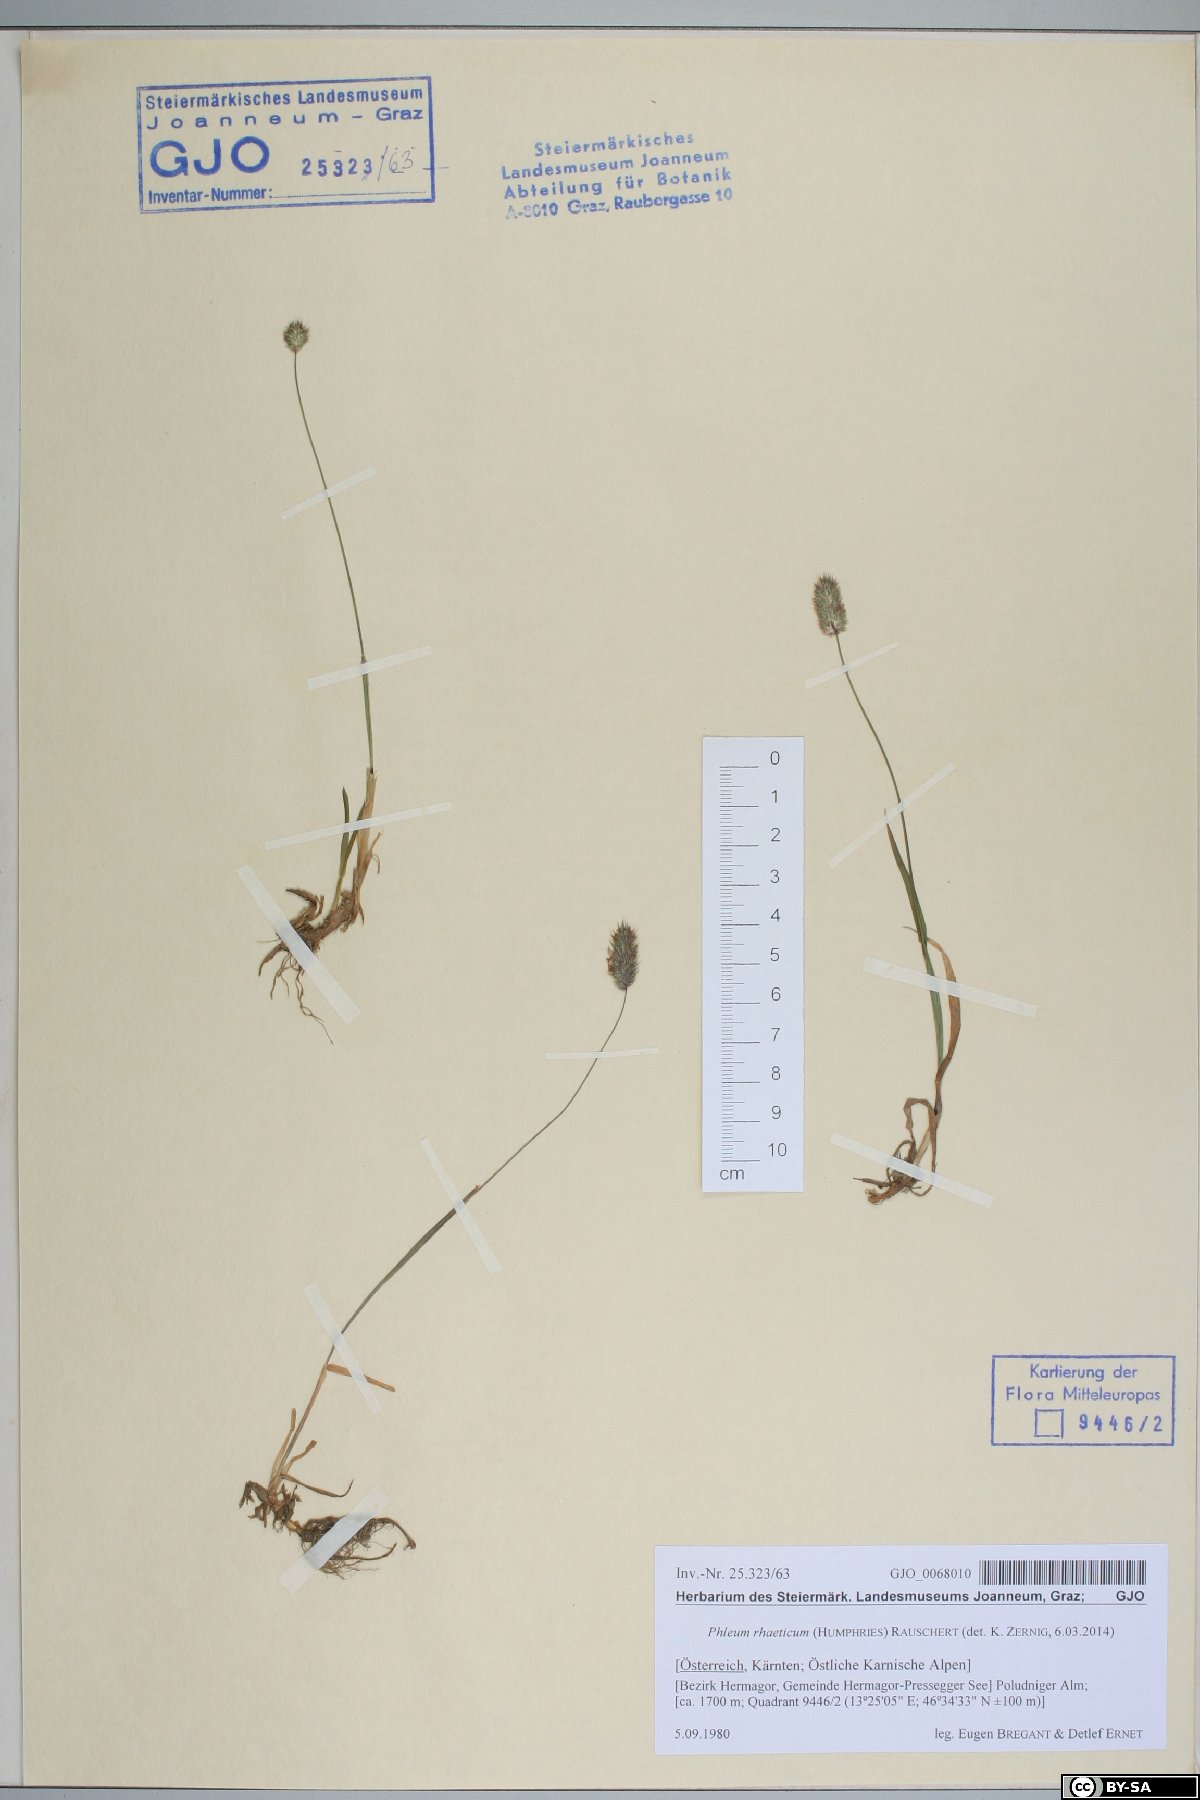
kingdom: Plantae
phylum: Tracheophyta
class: Liliopsida
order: Poales
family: Poaceae
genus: Phleum
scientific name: Phleum alpinum
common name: Alpine cat's-tail
